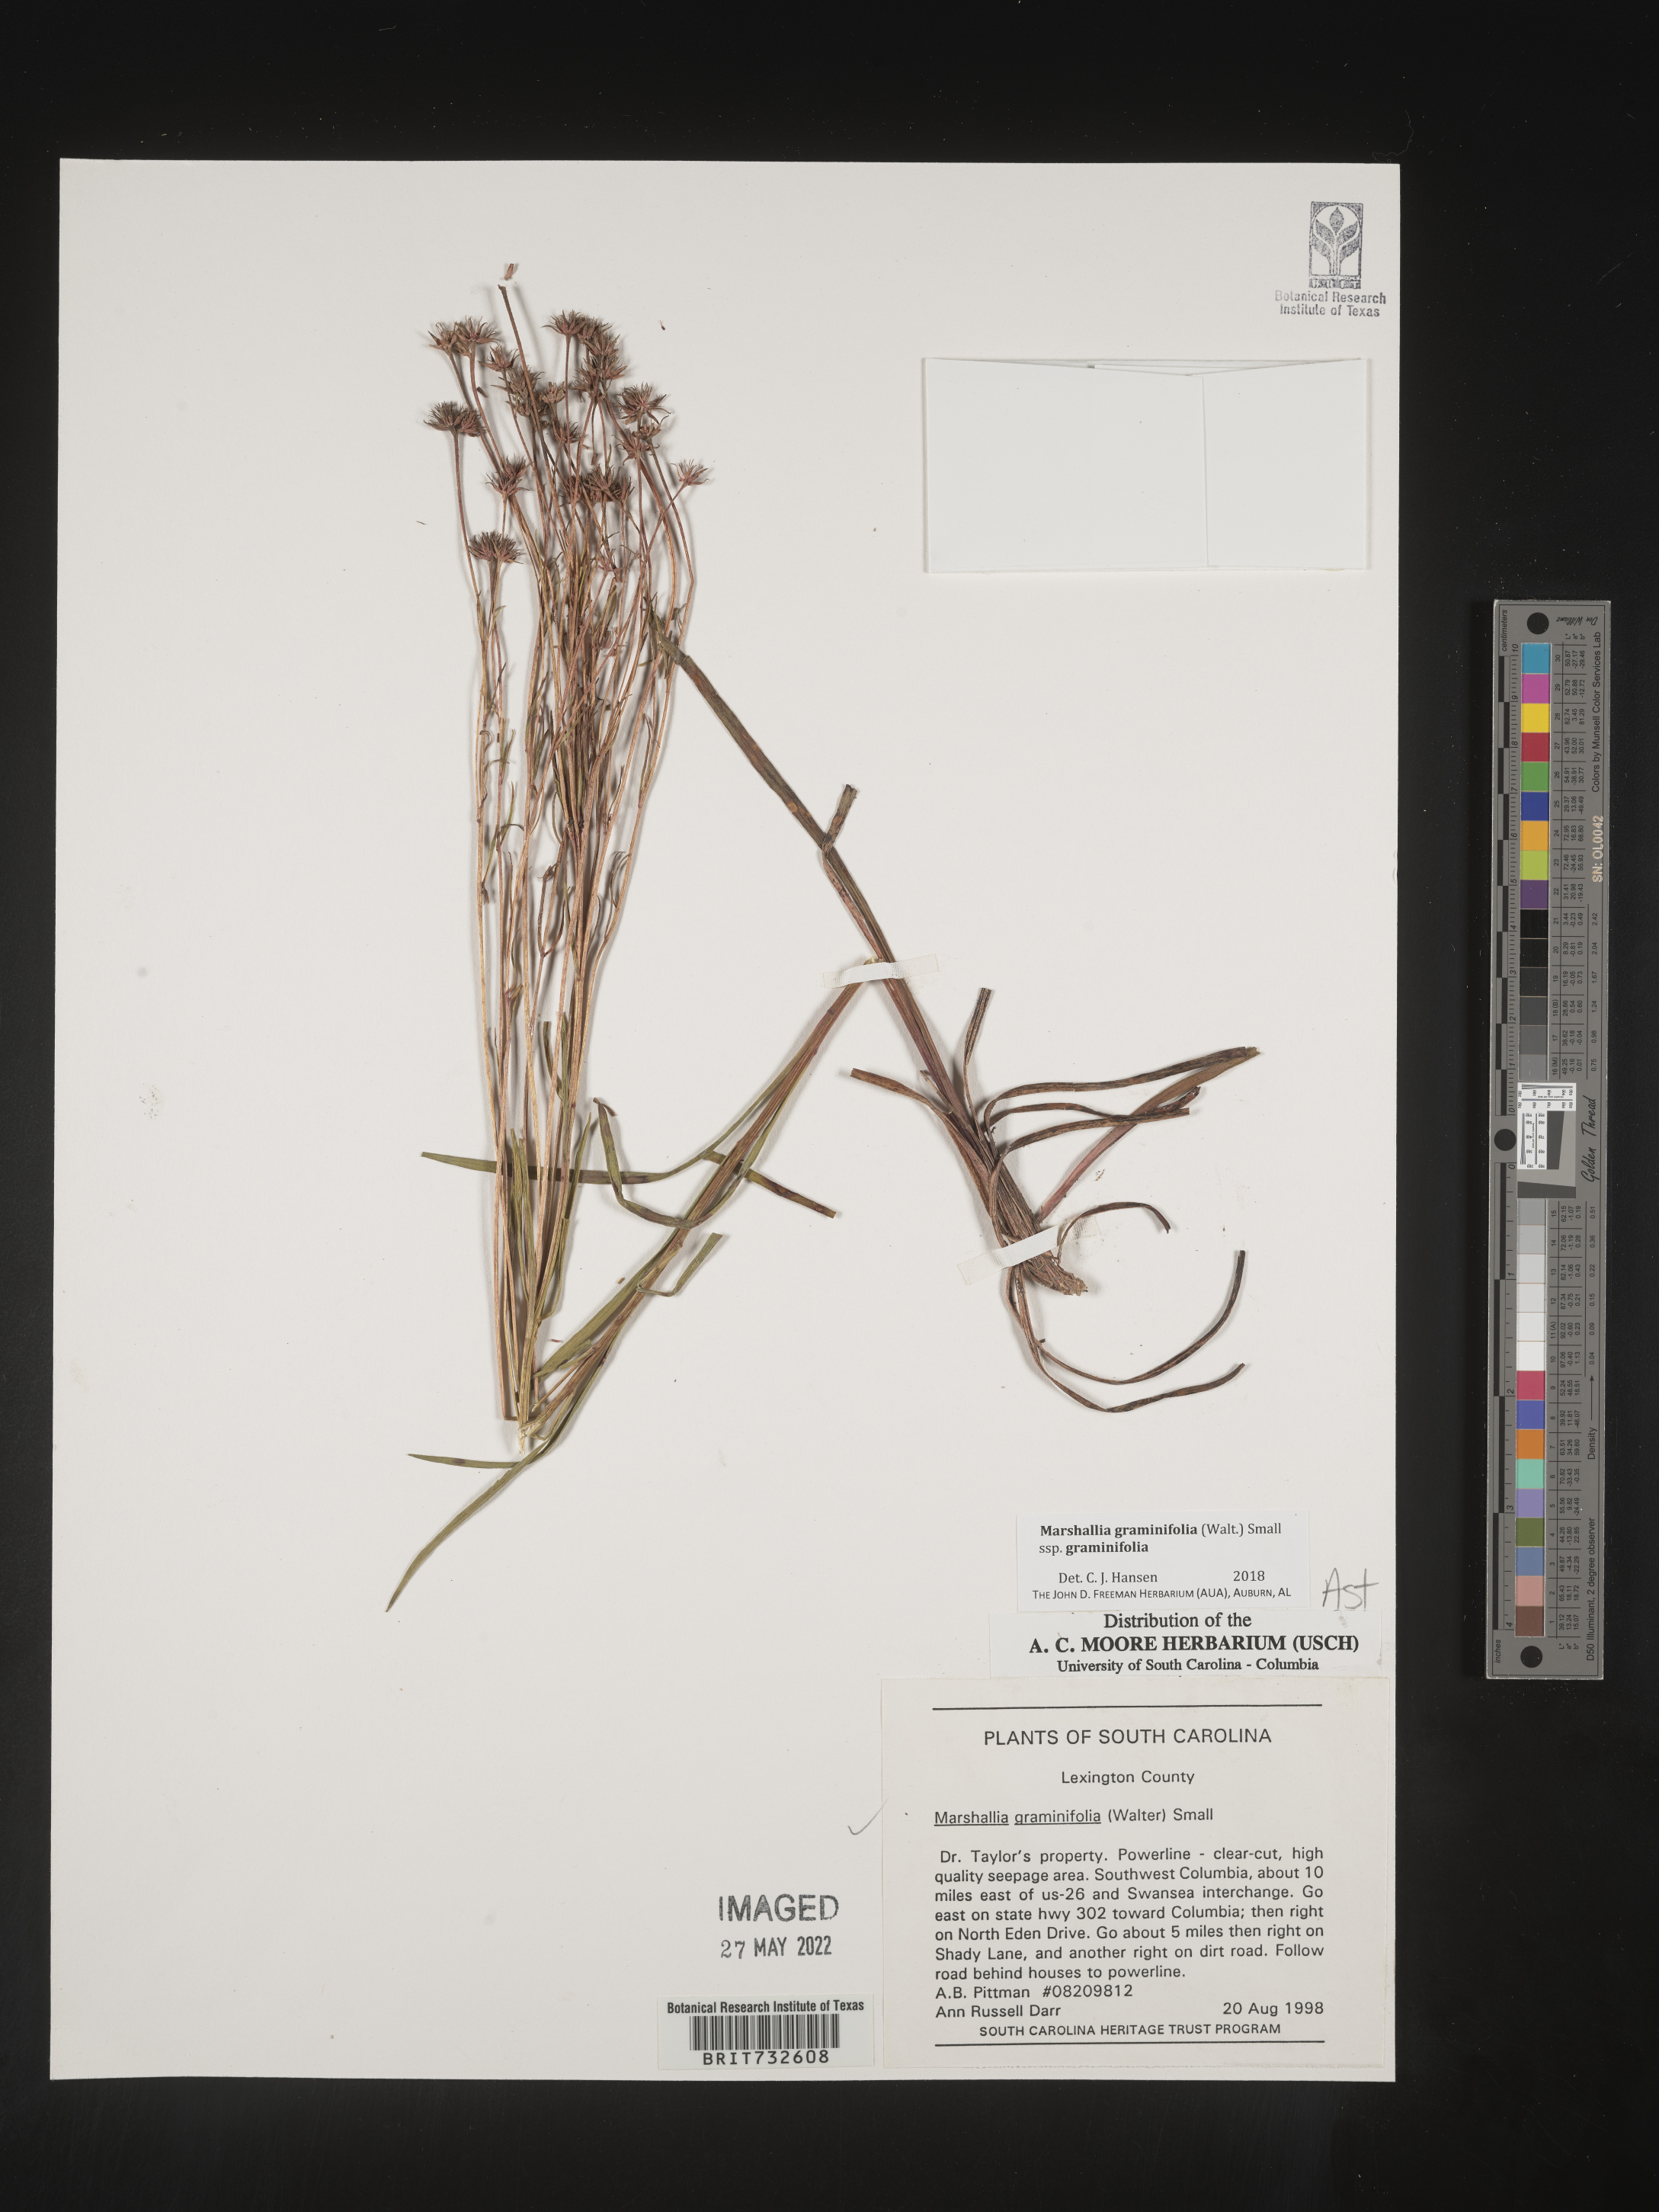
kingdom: Plantae
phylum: Tracheophyta
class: Magnoliopsida
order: Asterales
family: Asteraceae
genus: Marshallia
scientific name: Marshallia graminifolia
